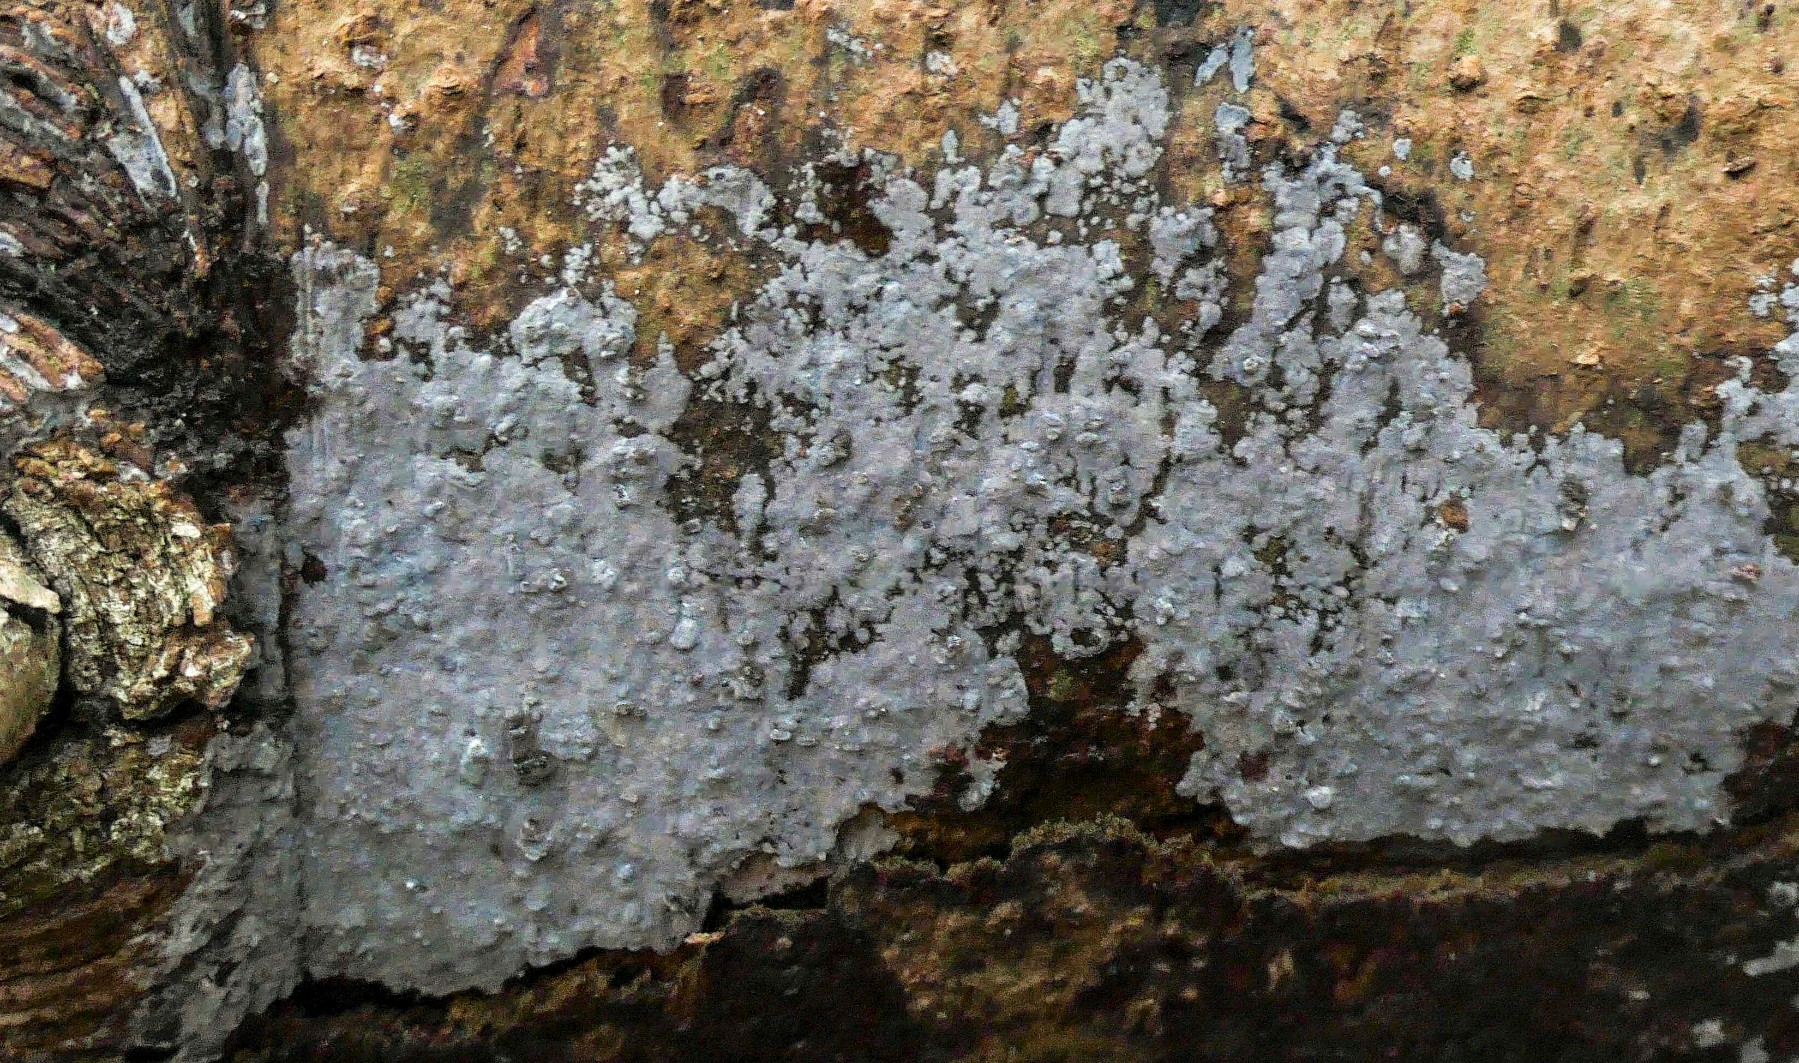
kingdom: Fungi
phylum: Basidiomycota
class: Agaricomycetes
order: Sebacinales
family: Sebacinaceae
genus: Sebacina
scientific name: Sebacina grisea
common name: blågrå bævrehinde
